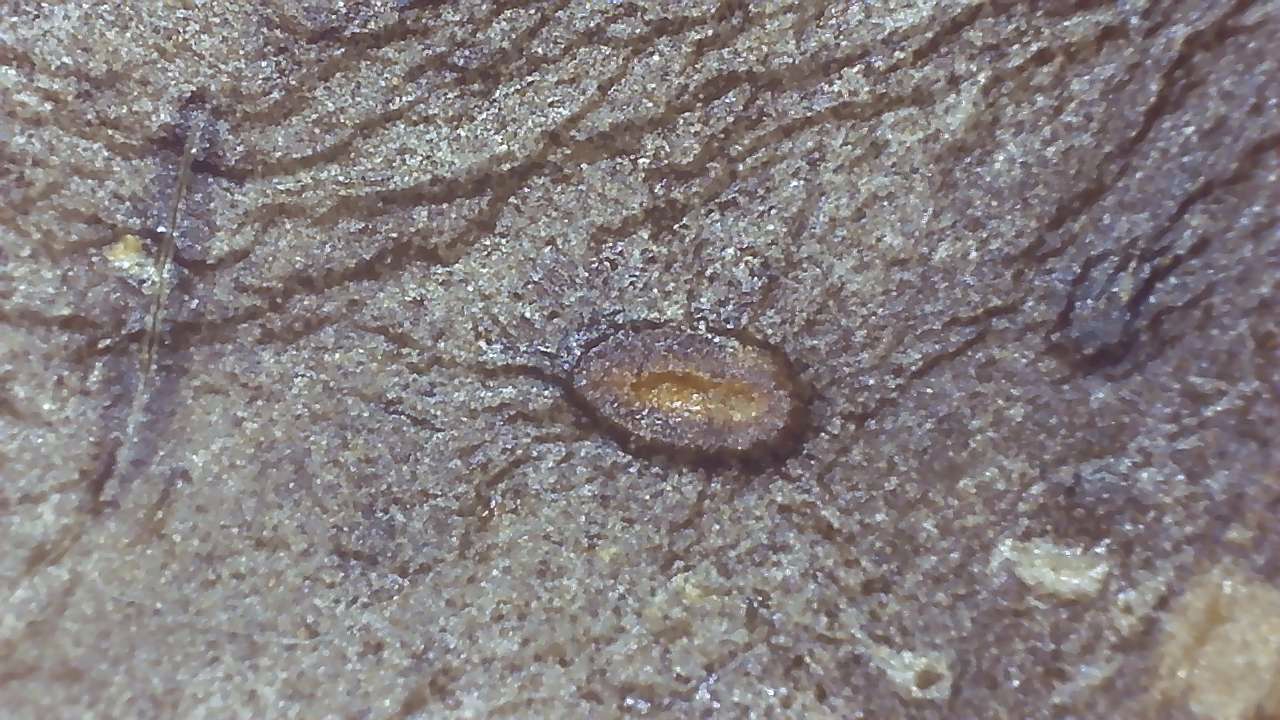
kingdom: Fungi
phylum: Ascomycota
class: Leotiomycetes
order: Phacidiales
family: Phacidiaceae
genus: Phacidium
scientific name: Phacidium lauri
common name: kristtorn-tandskive
